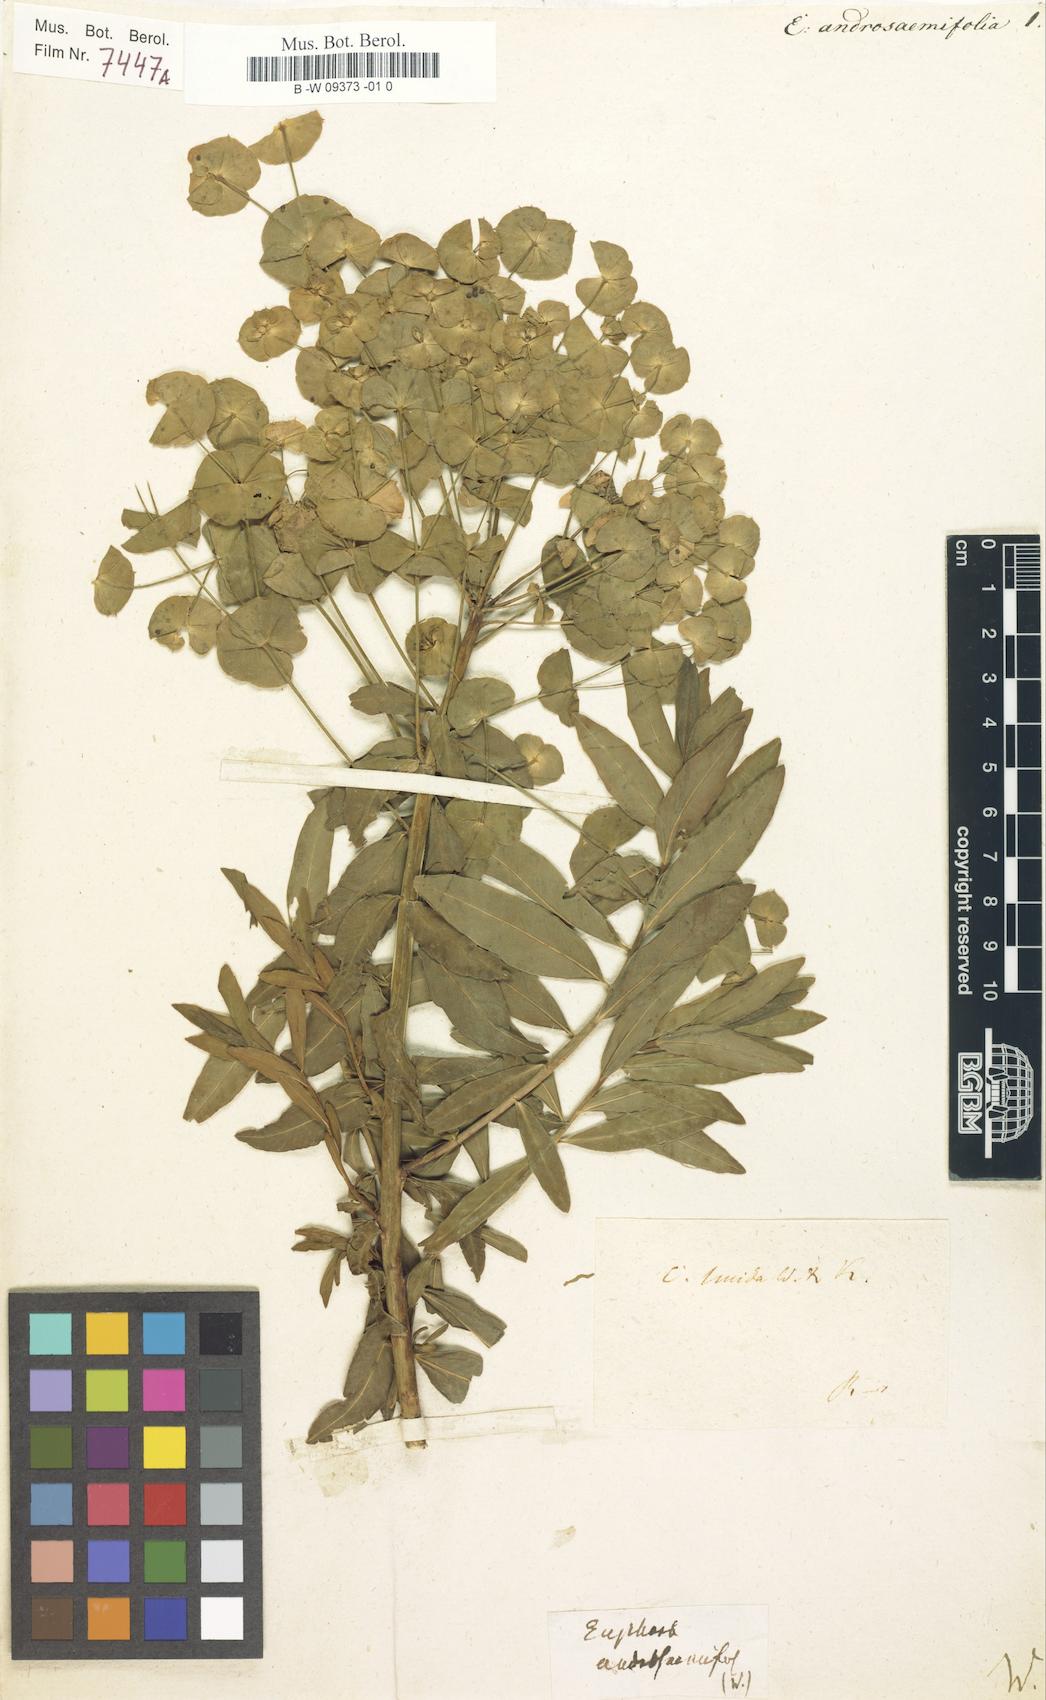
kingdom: Plantae
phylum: Tracheophyta
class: Magnoliopsida
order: Malpighiales
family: Euphorbiaceae
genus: Euphorbia
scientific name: Euphorbia esula
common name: Leafy spurge
